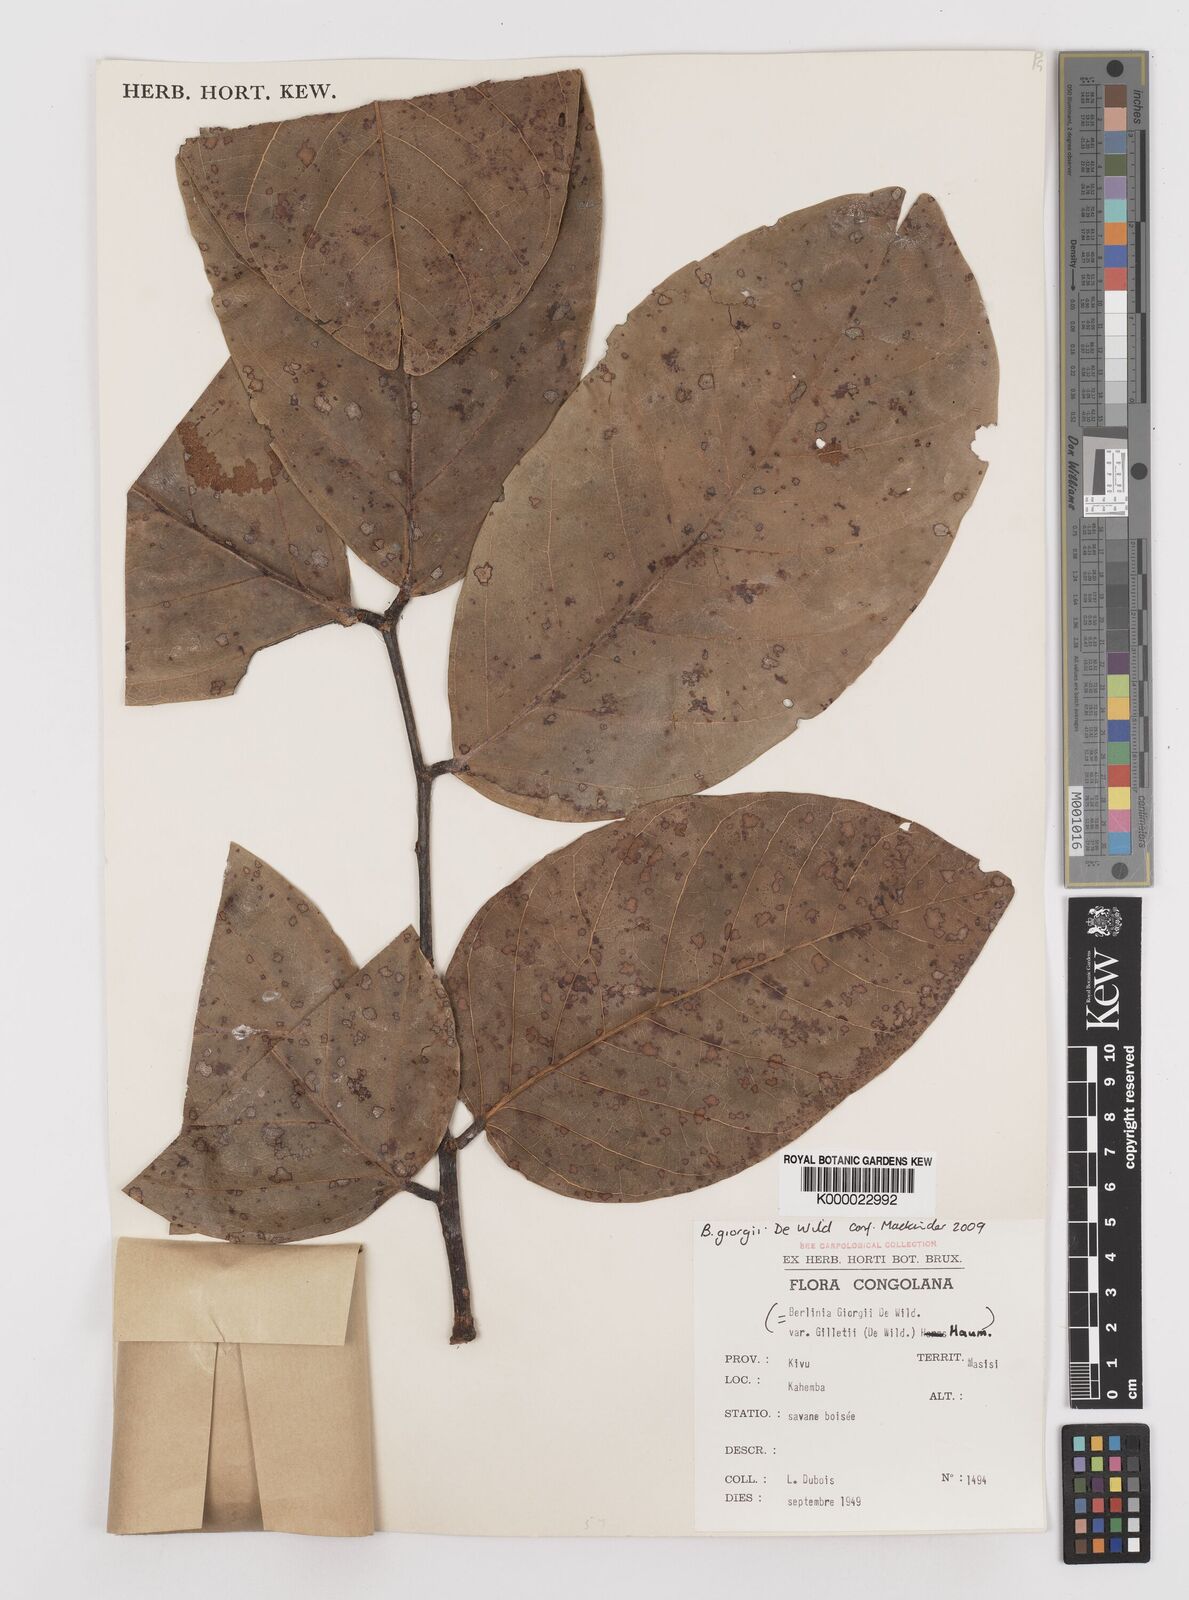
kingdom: Plantae
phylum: Tracheophyta
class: Magnoliopsida
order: Fabales
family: Fabaceae
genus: Berlinia
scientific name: Berlinia giorgii
